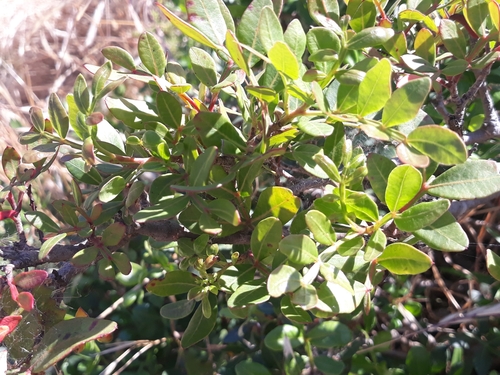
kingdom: Plantae
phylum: Tracheophyta
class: Magnoliopsida
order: Sapindales
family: Anacardiaceae
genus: Pistacia
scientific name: Pistacia lentiscus
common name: Lentisk
